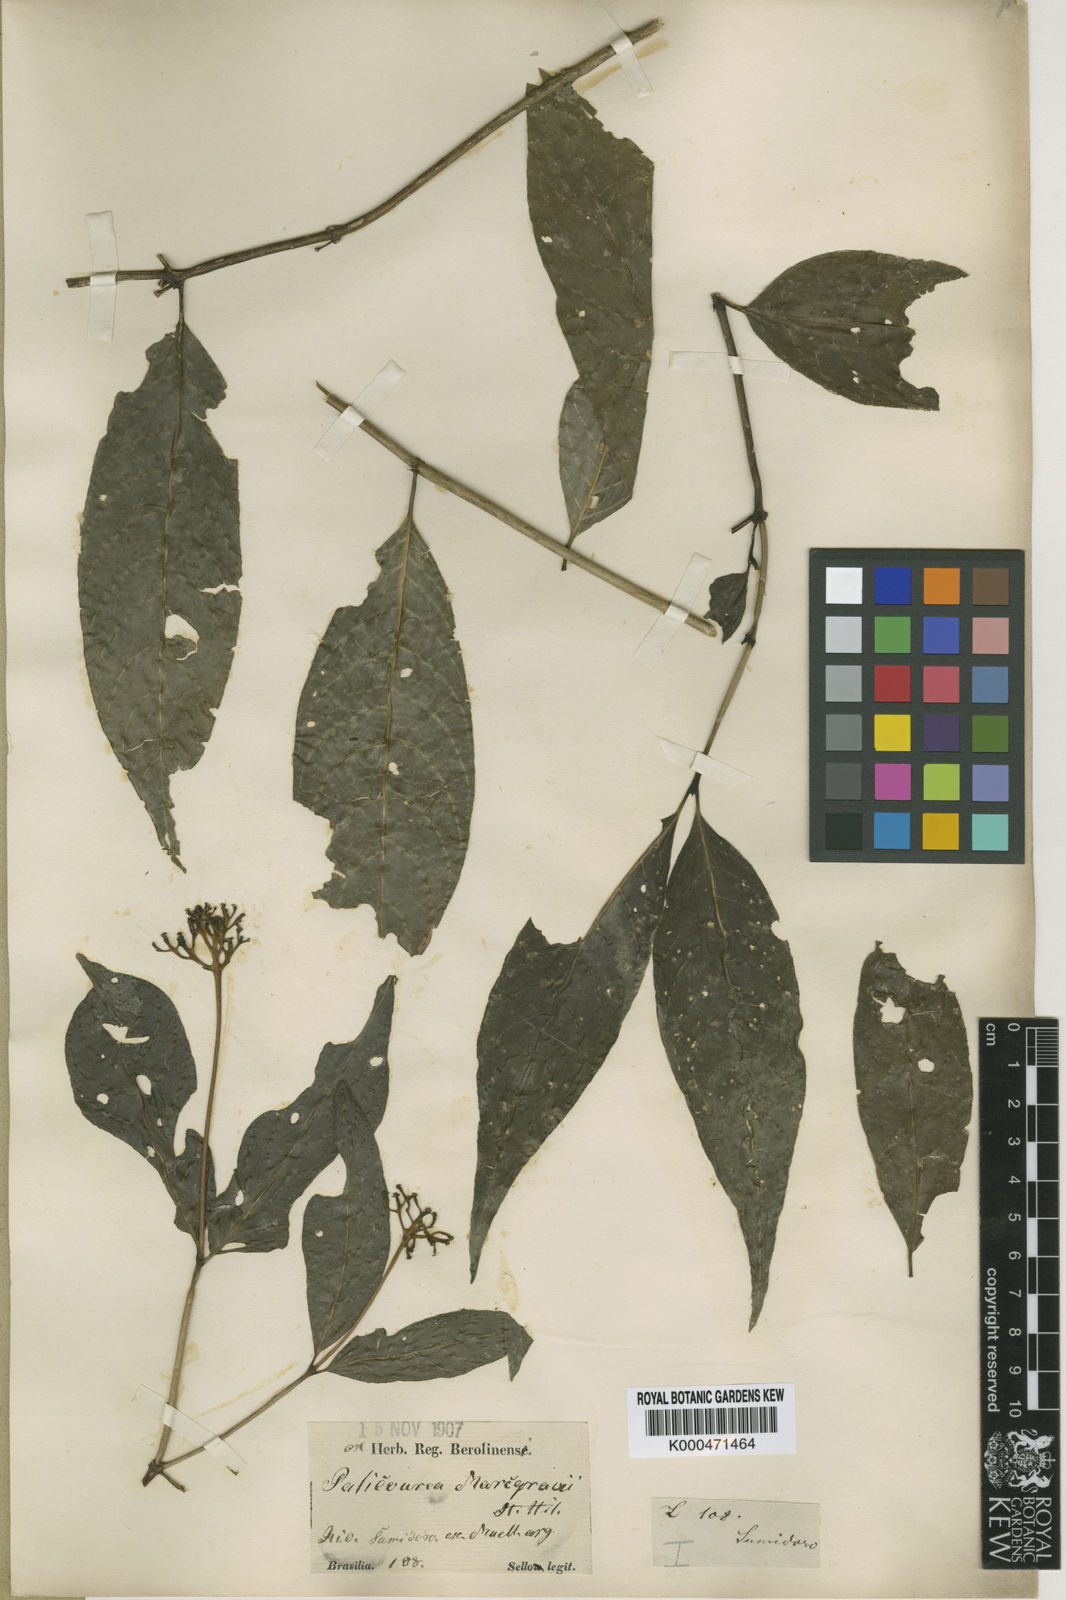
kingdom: Plantae
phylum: Tracheophyta
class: Magnoliopsida
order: Gentianales
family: Rubiaceae
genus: Palicourea
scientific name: Palicourea marcgravii
